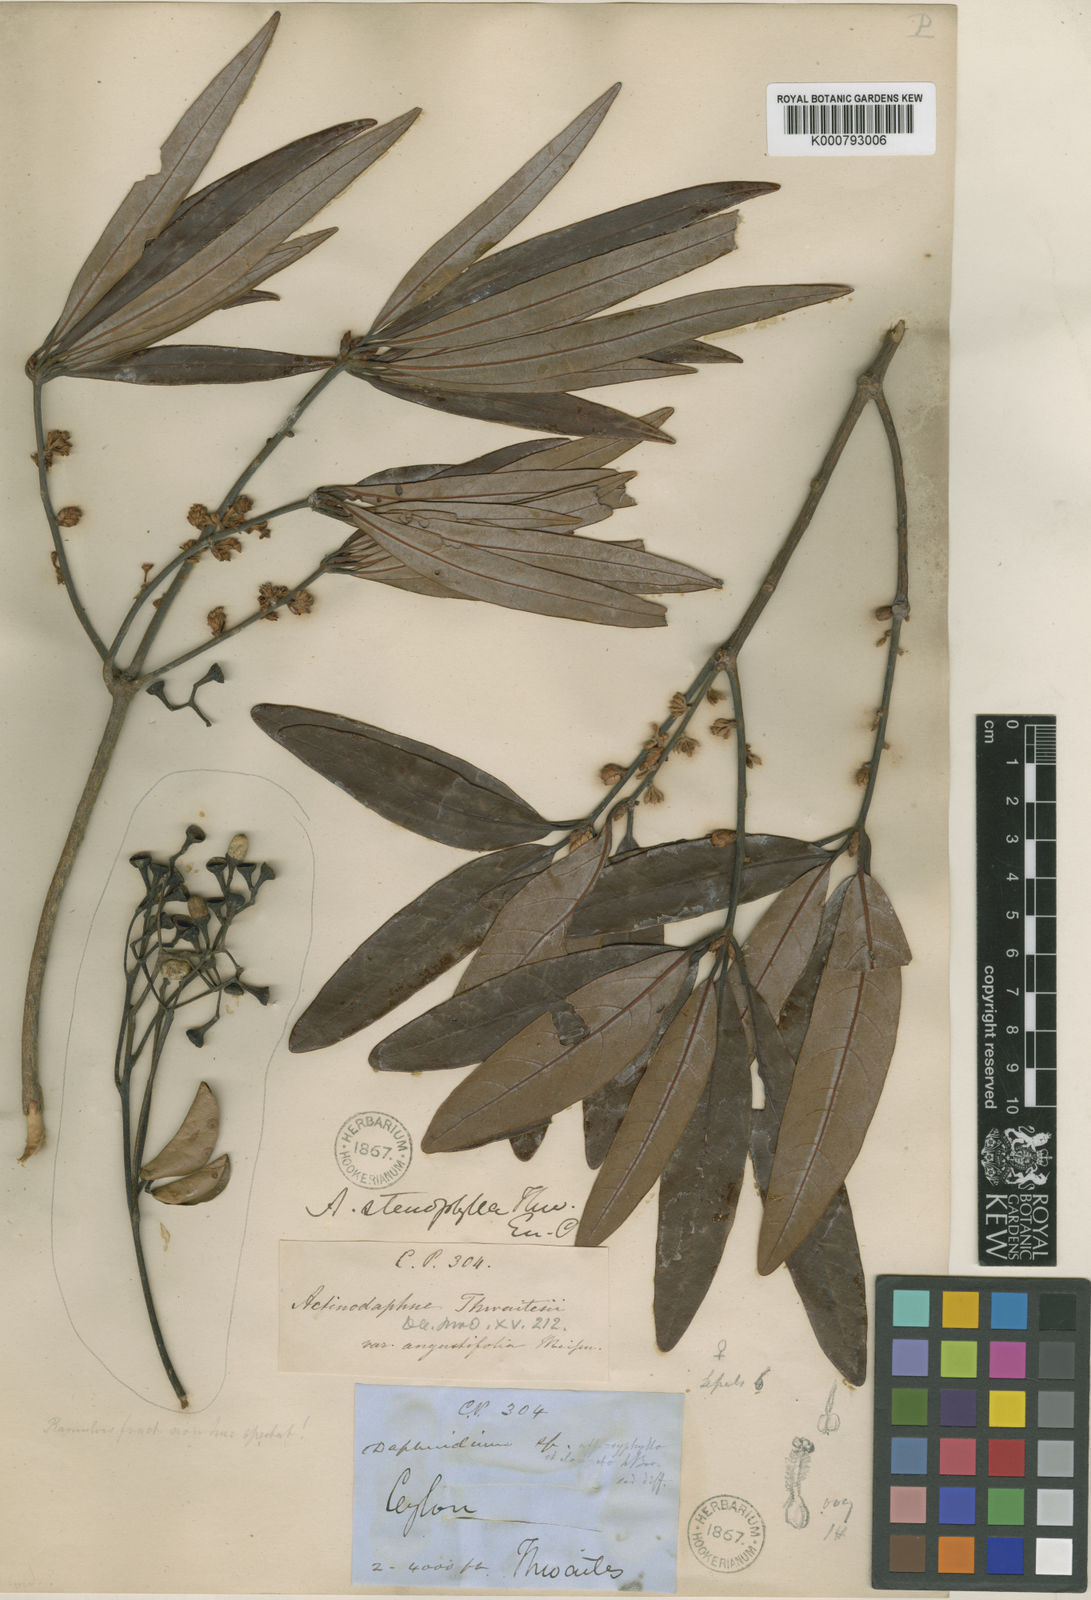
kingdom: Plantae
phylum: Tracheophyta
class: Magnoliopsida
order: Laurales
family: Lauraceae
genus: Actinodaphne
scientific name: Actinodaphne stenophylla
